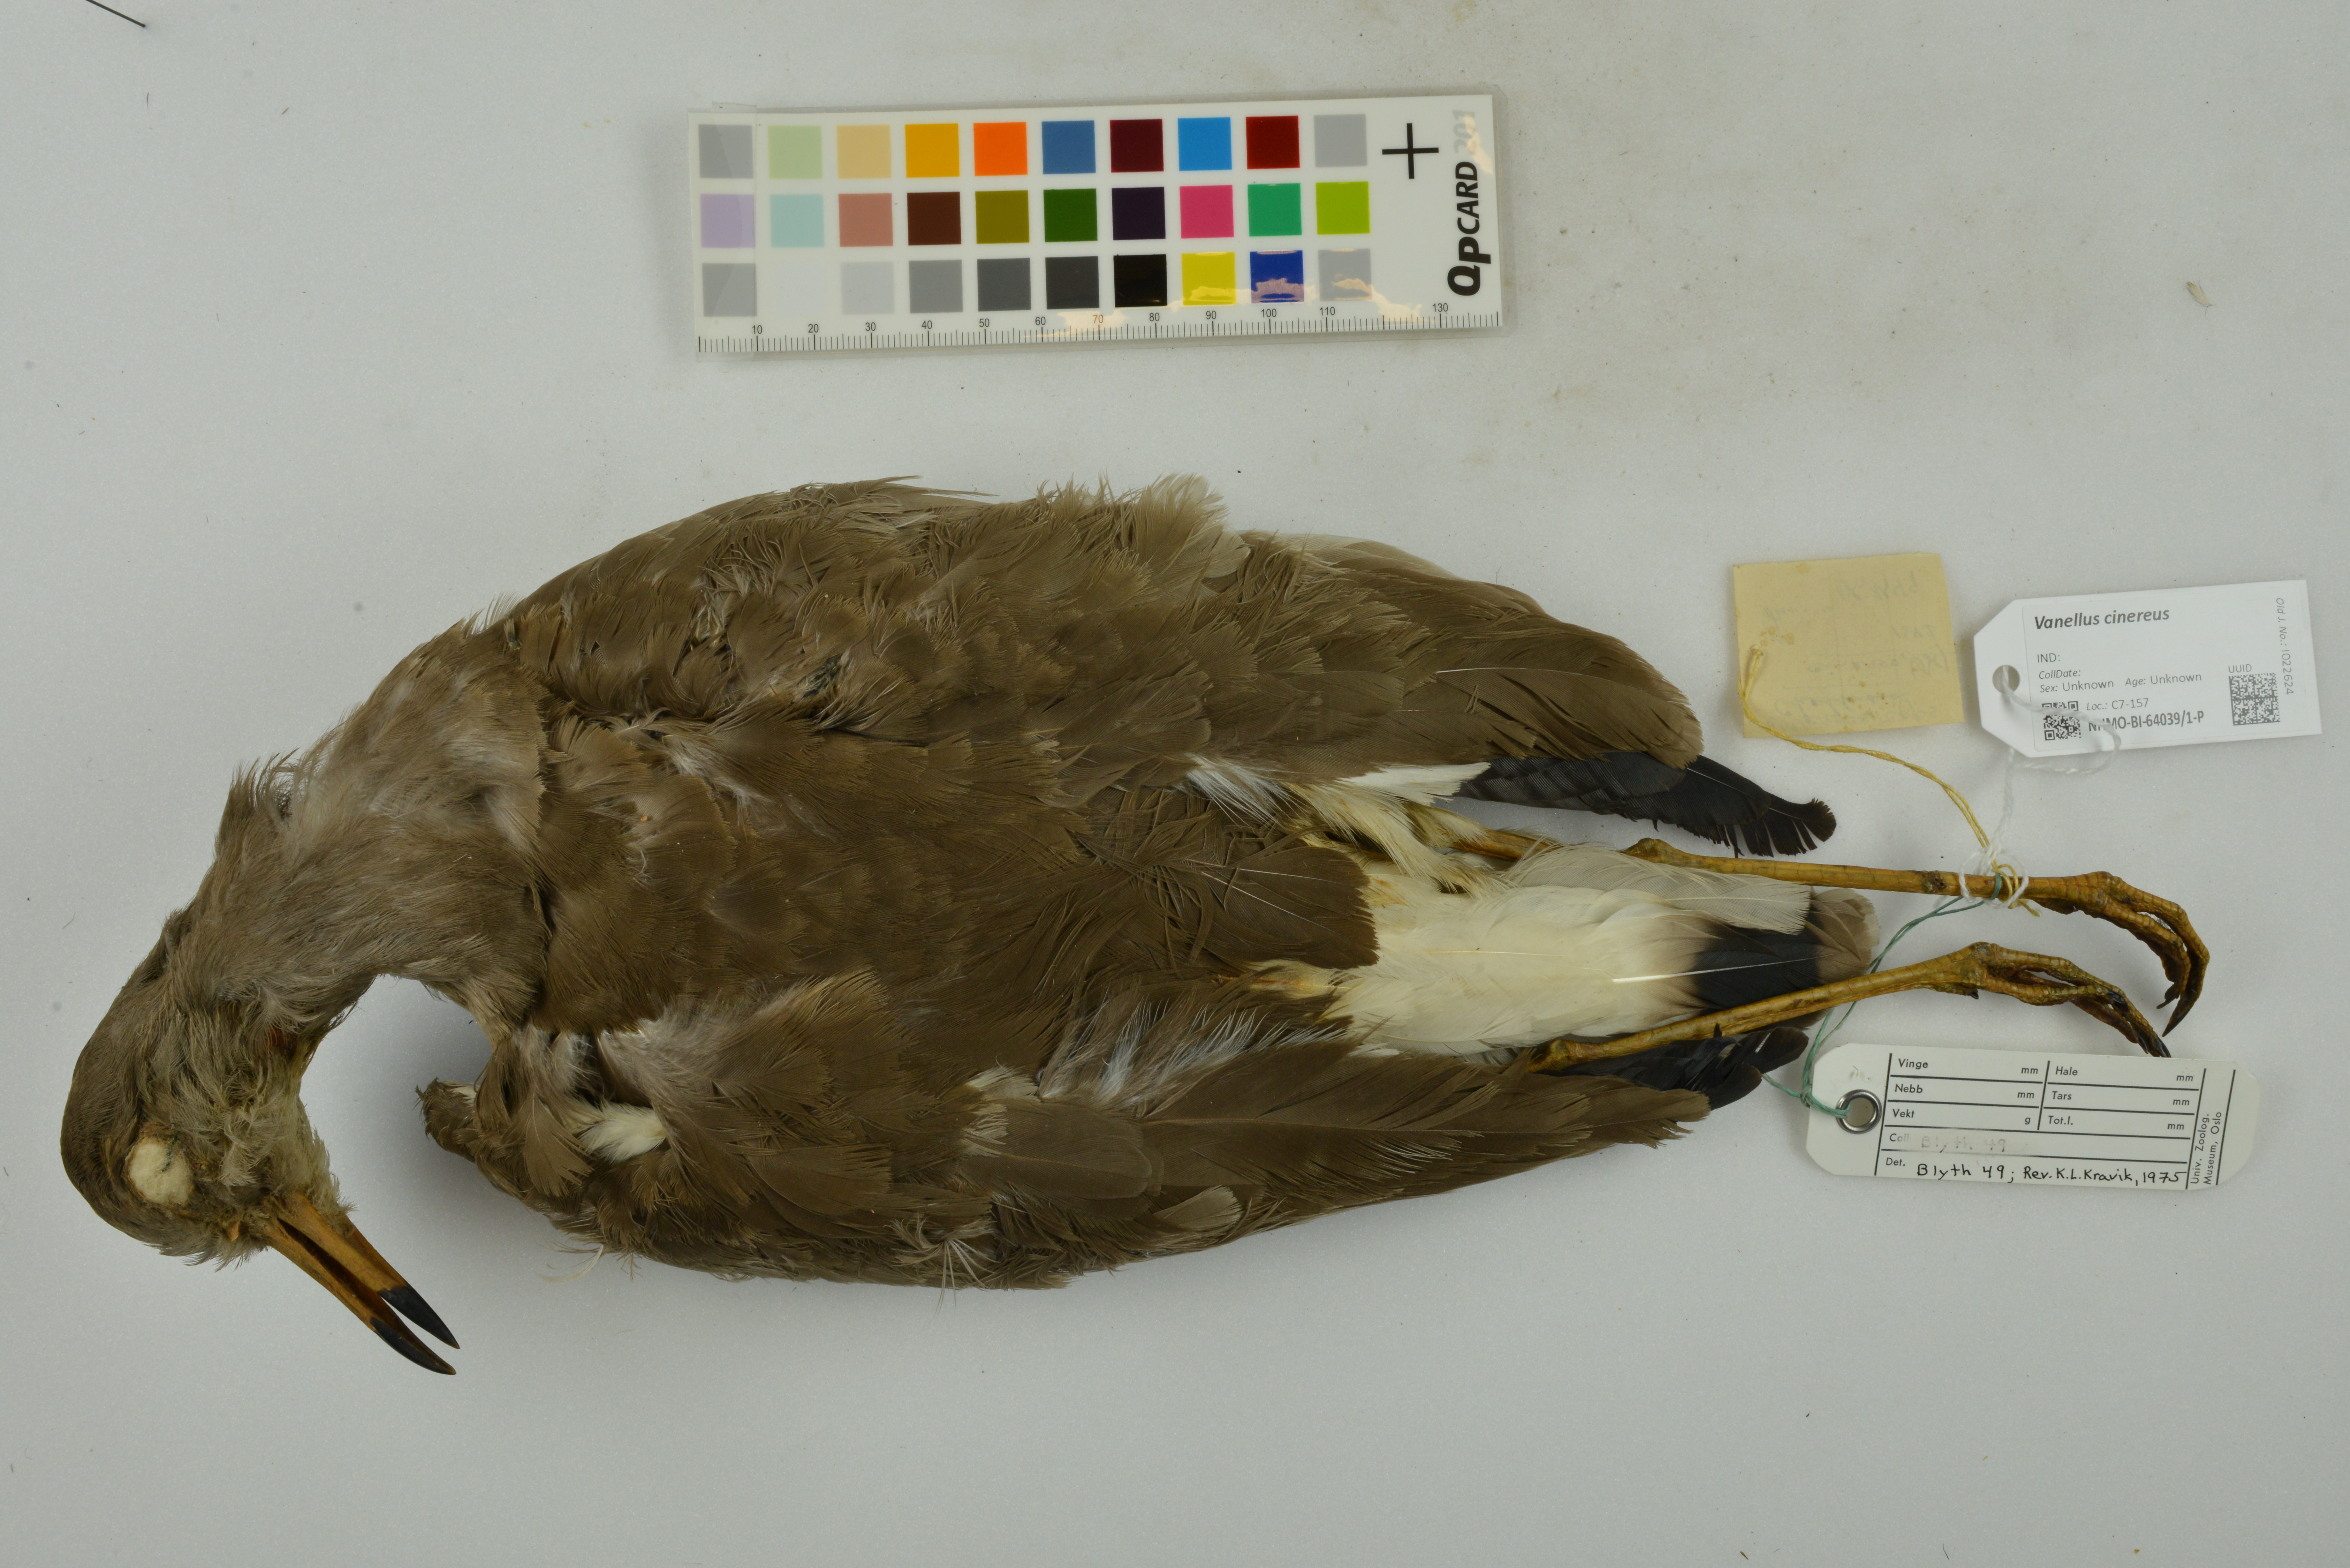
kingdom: Animalia
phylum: Chordata
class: Aves
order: Charadriiformes
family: Charadriidae
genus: Vanellus
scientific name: Vanellus cinereus
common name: Grey-headed lapwing
